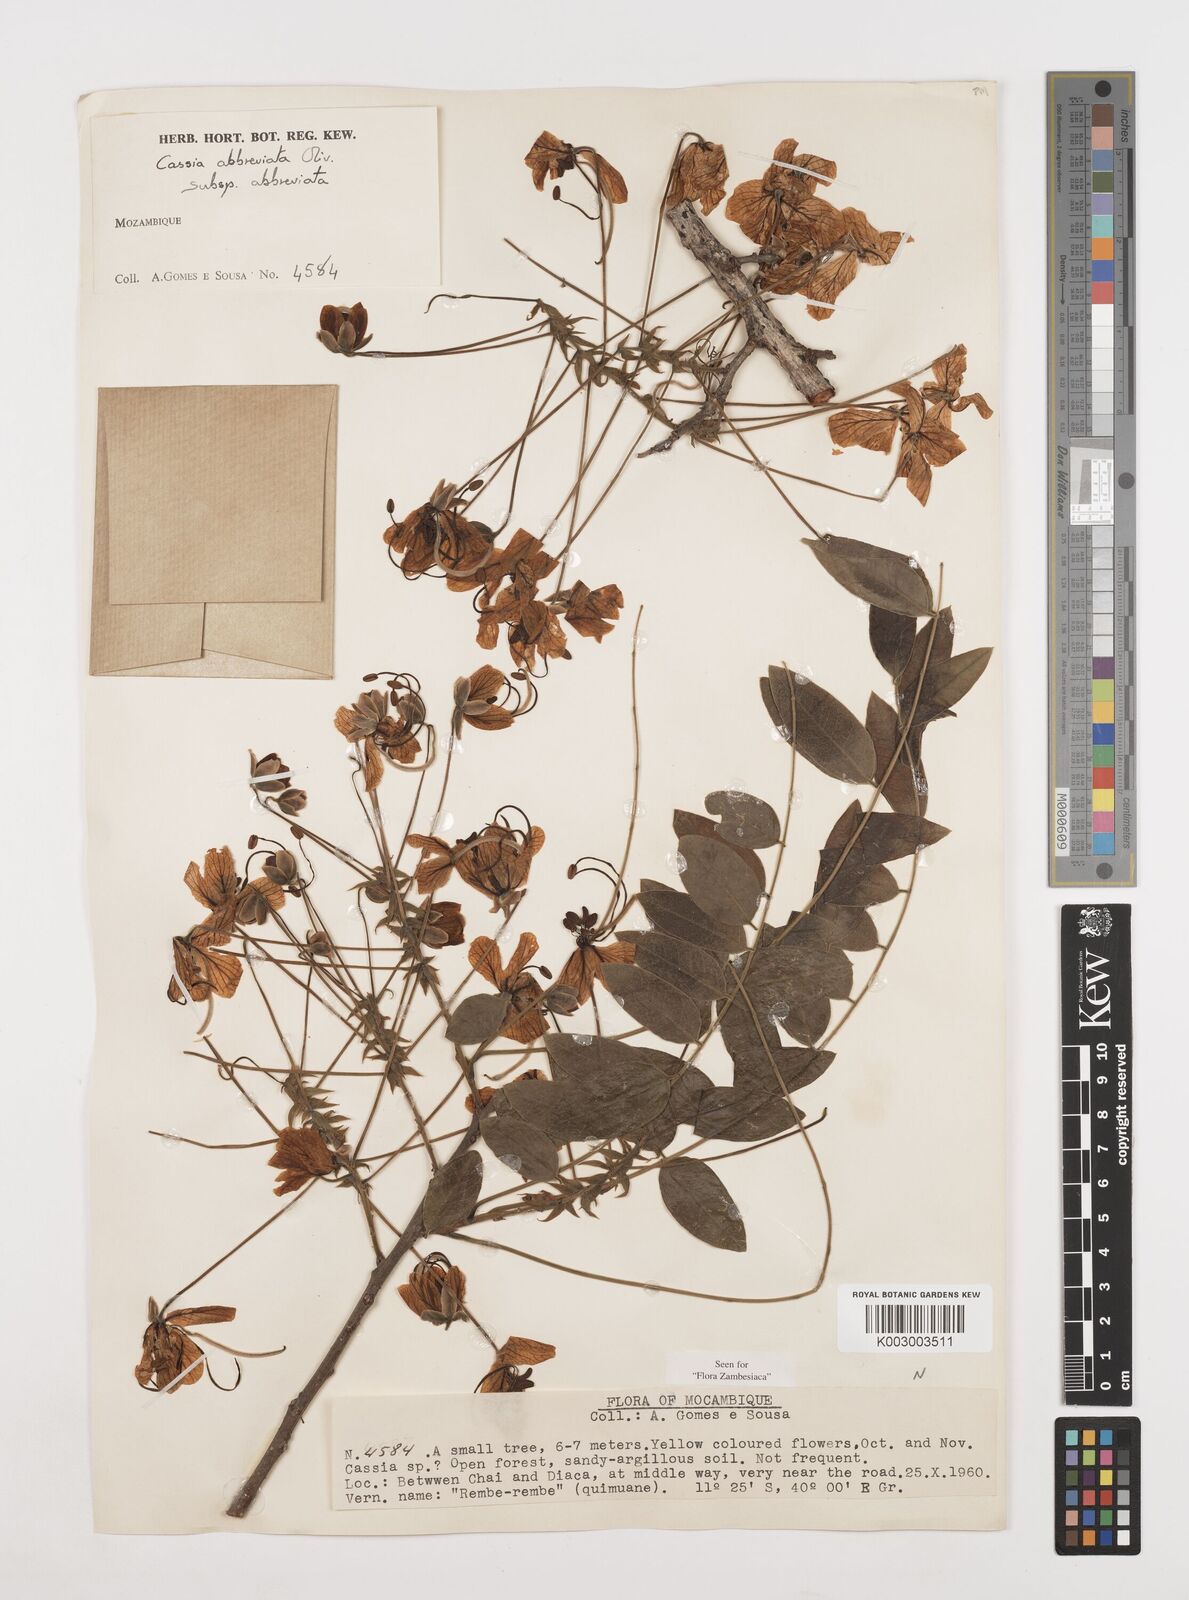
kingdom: Plantae
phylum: Tracheophyta
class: Magnoliopsida
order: Fabales
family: Fabaceae
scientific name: Fabaceae
